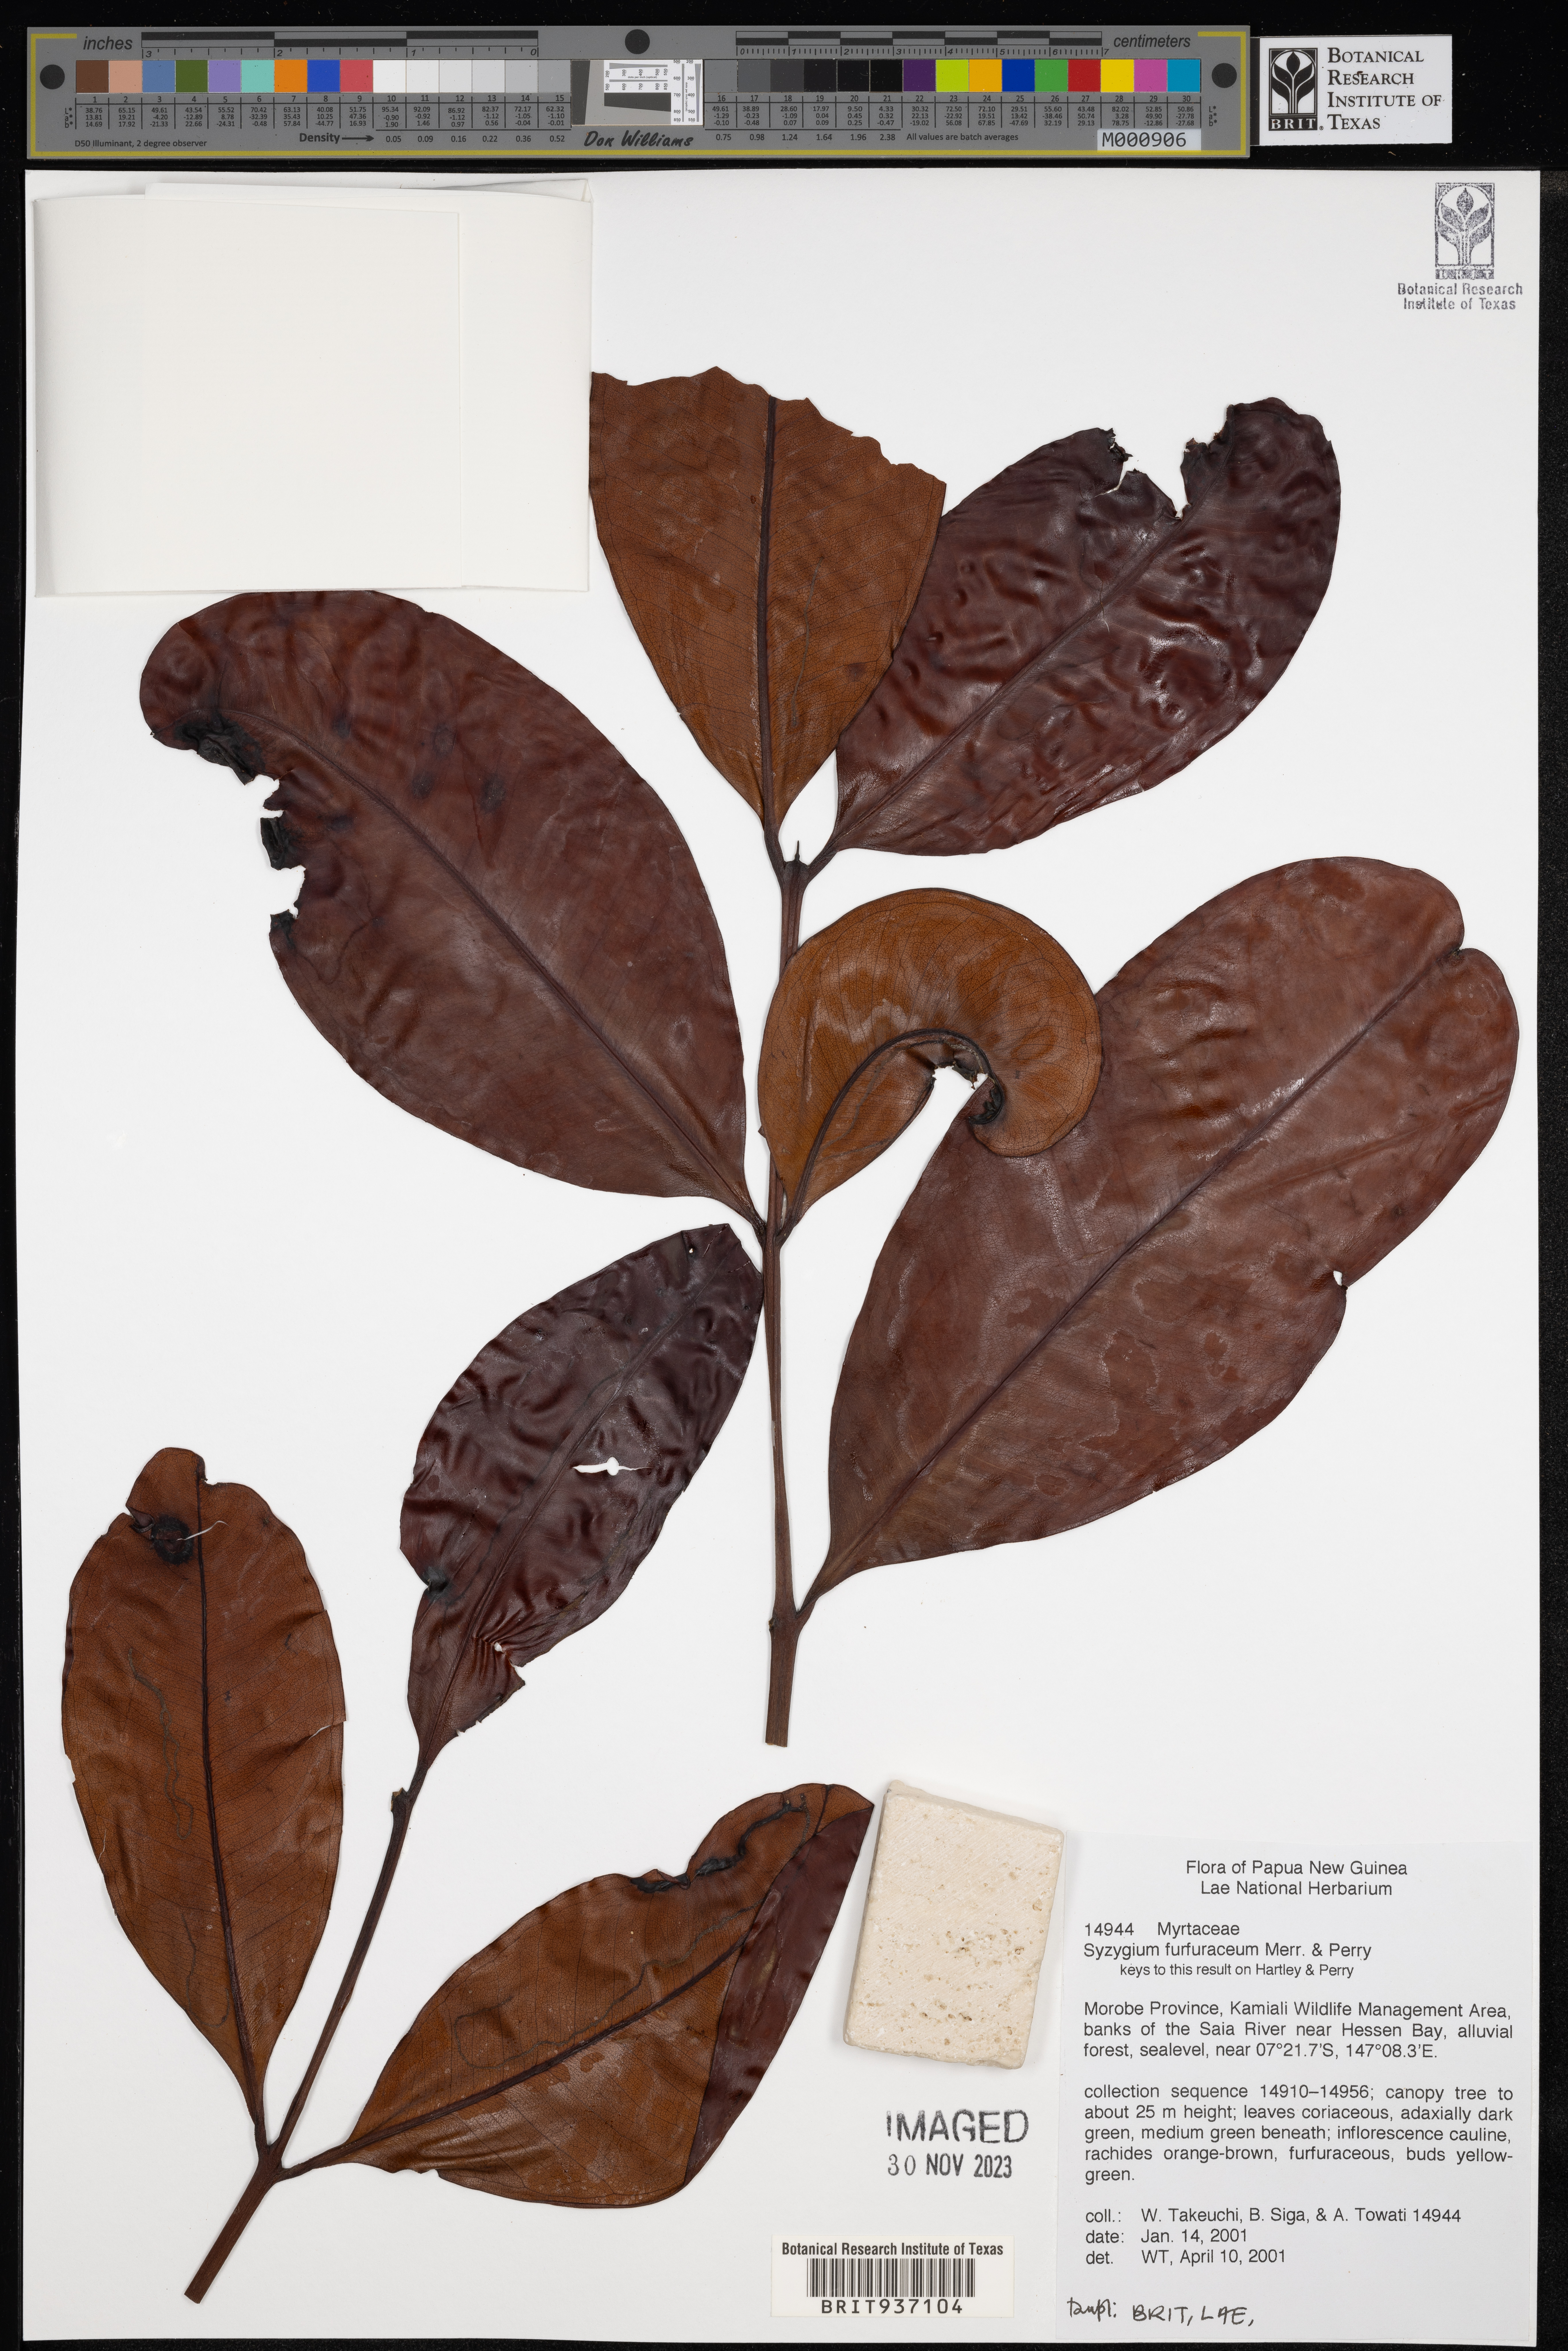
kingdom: Plantae
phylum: Tracheophyta
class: Magnoliopsida
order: Myrtales
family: Myrtaceae
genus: Syzygium
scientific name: Syzygium
